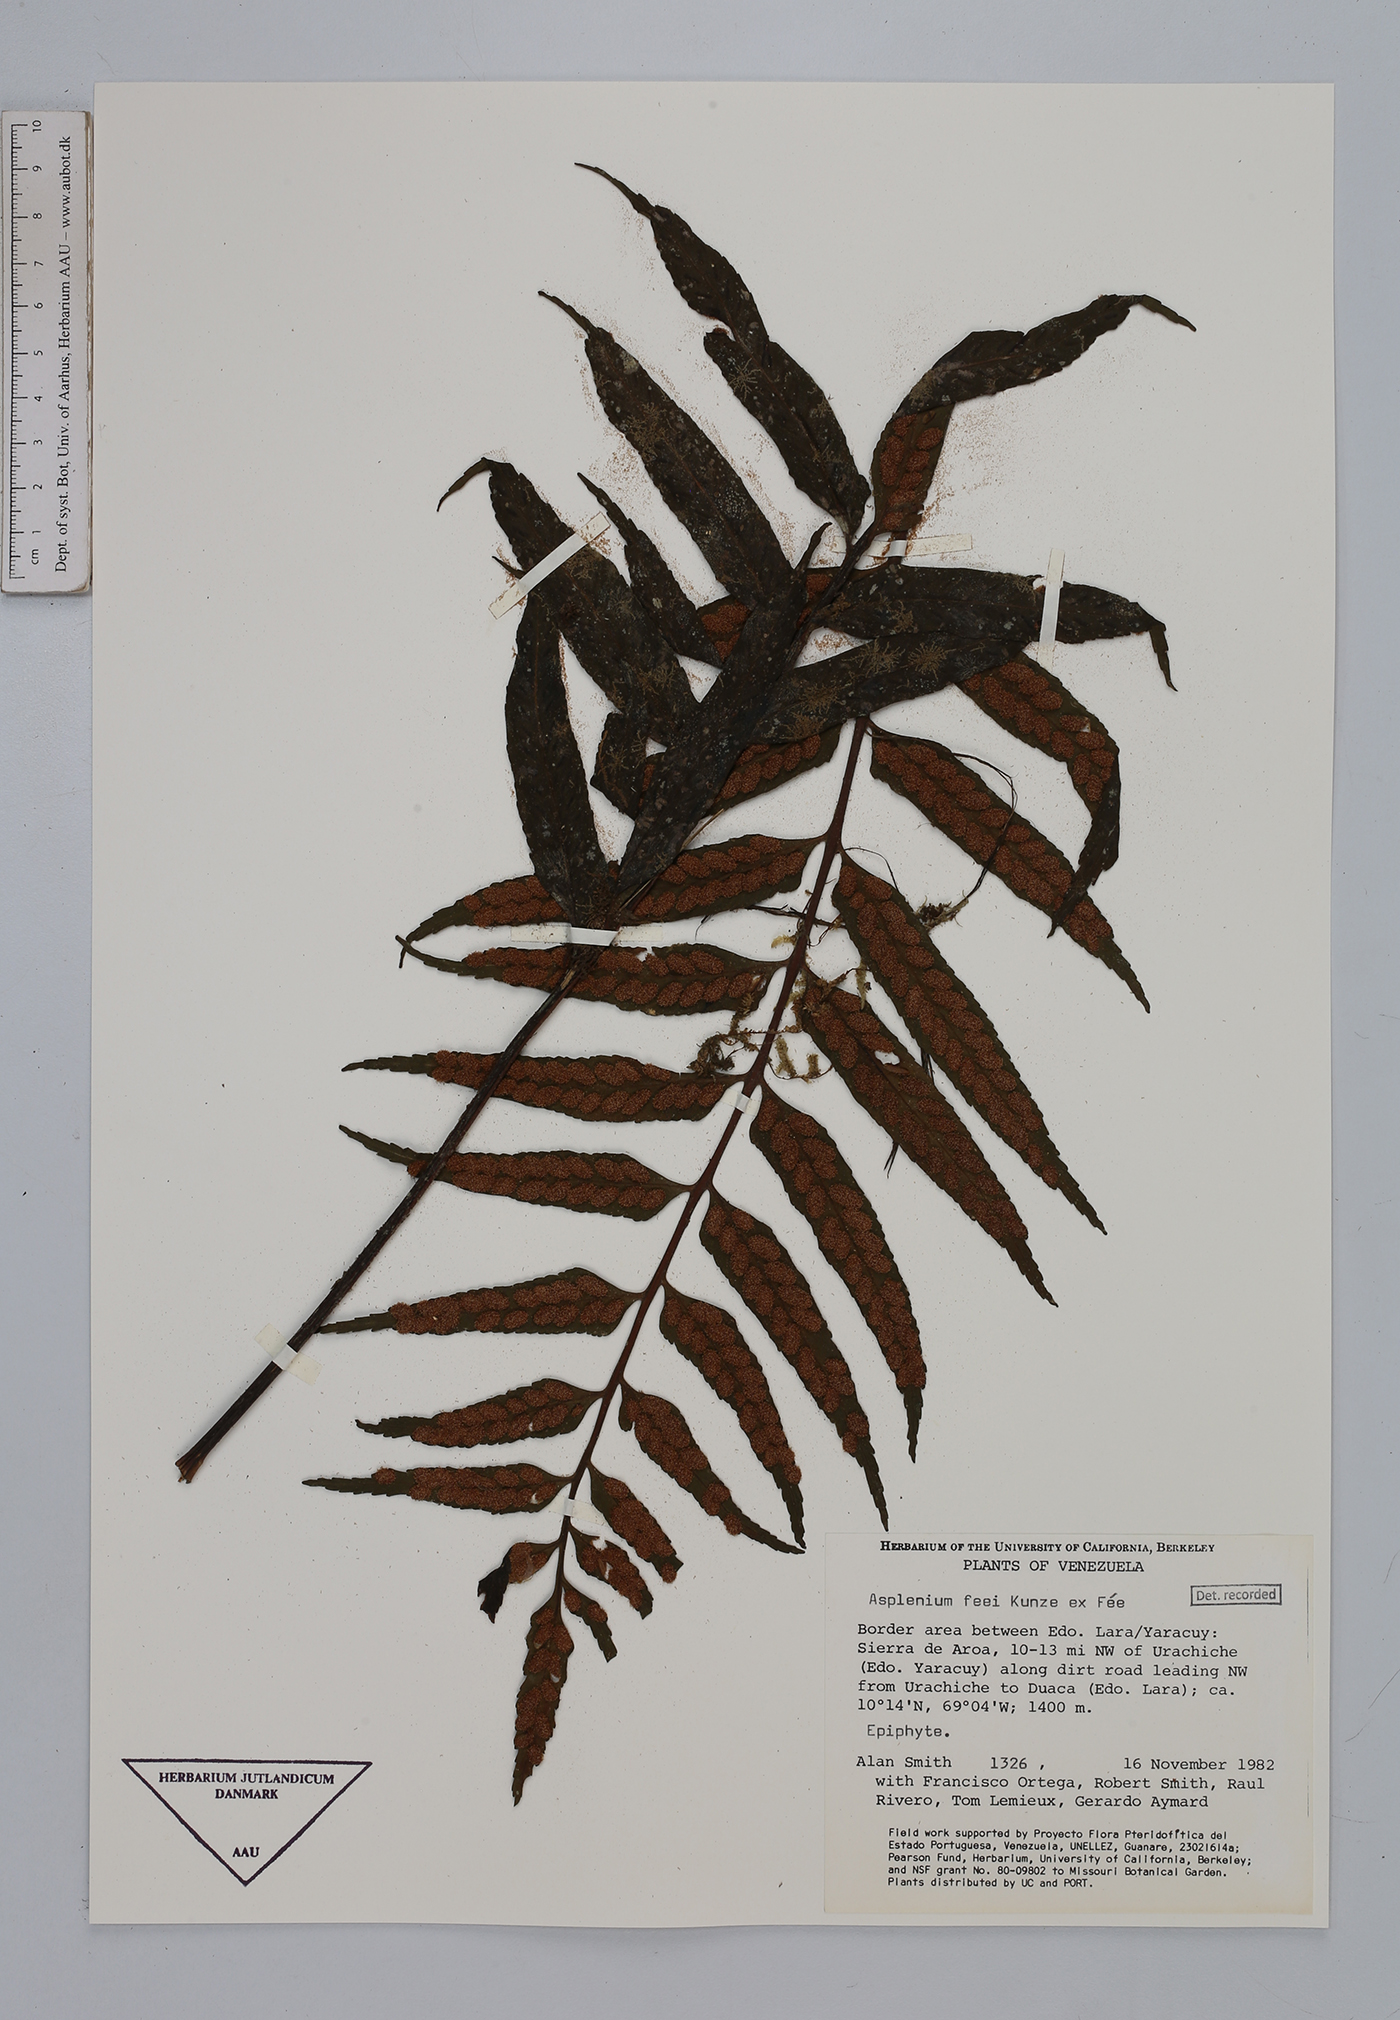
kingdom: Plantae
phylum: Tracheophyta
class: Polypodiopsida
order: Polypodiales
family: Aspleniaceae
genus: Asplenium
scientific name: Asplenium feei
